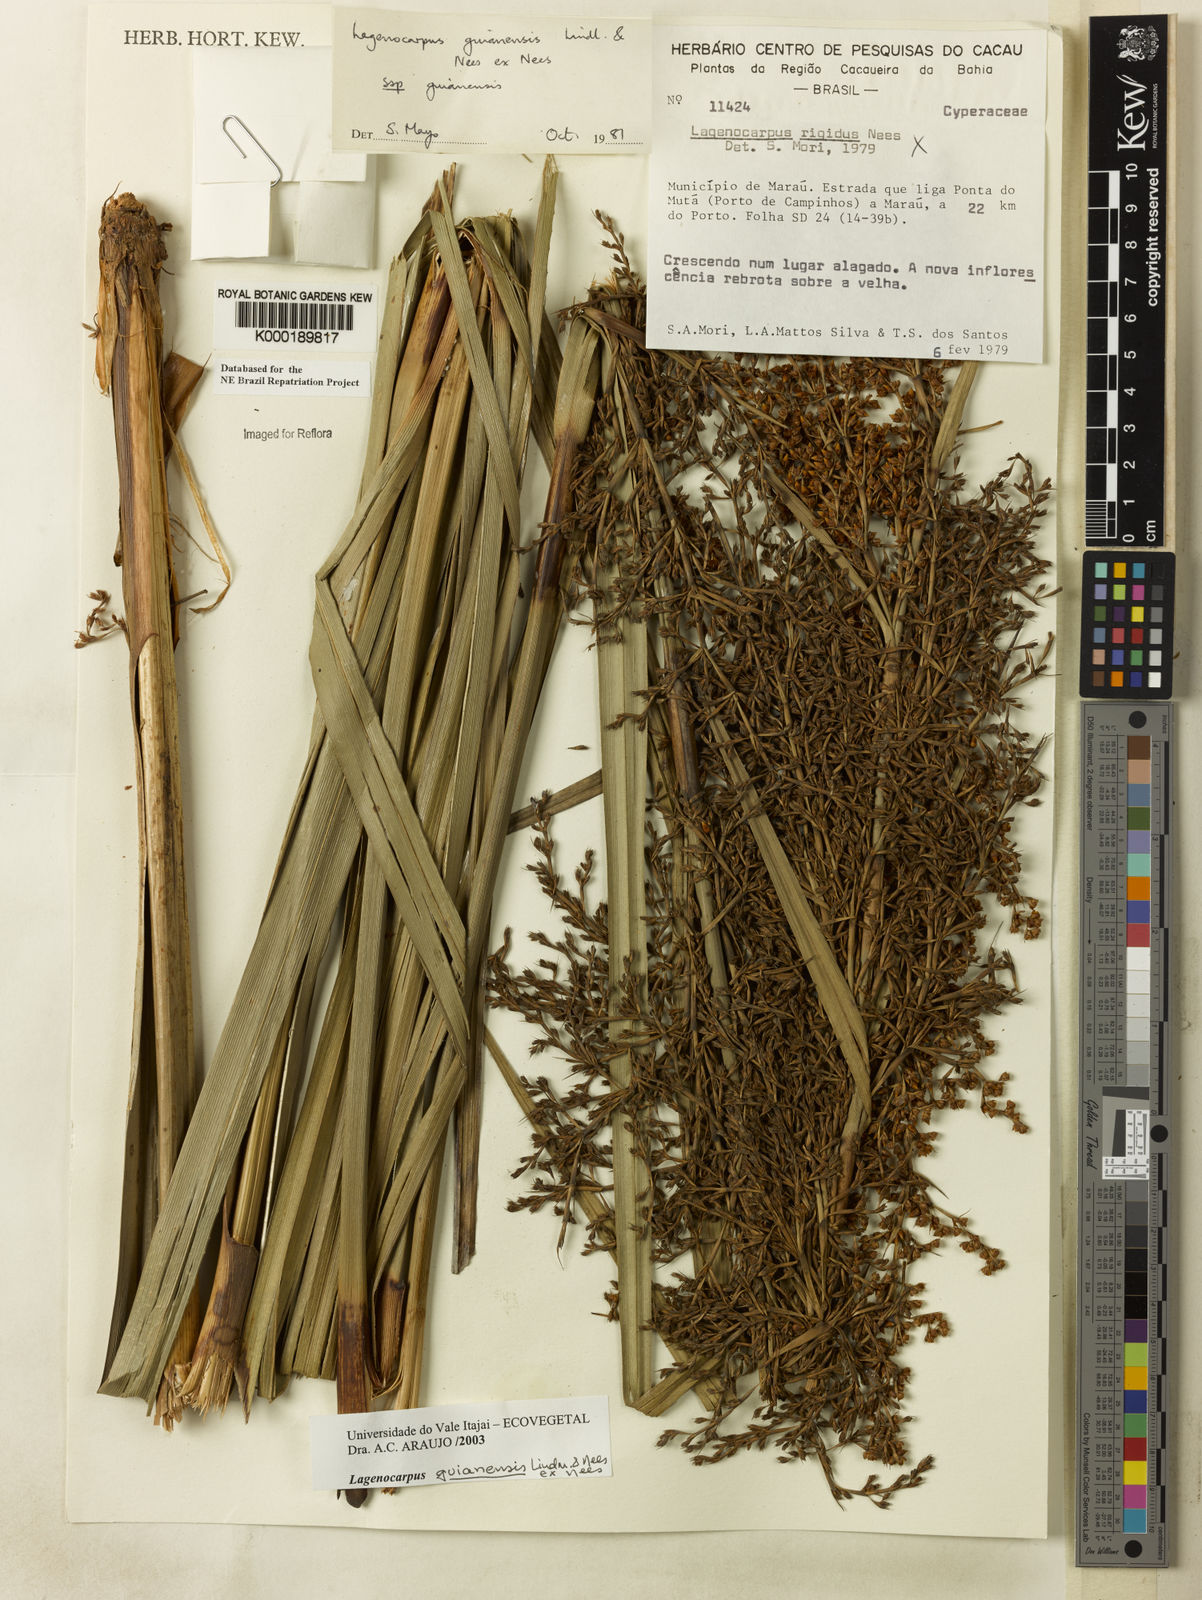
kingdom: Plantae
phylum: Tracheophyta
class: Liliopsida
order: Poales
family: Cyperaceae
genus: Lagenocarpus
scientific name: Lagenocarpus guianensis
